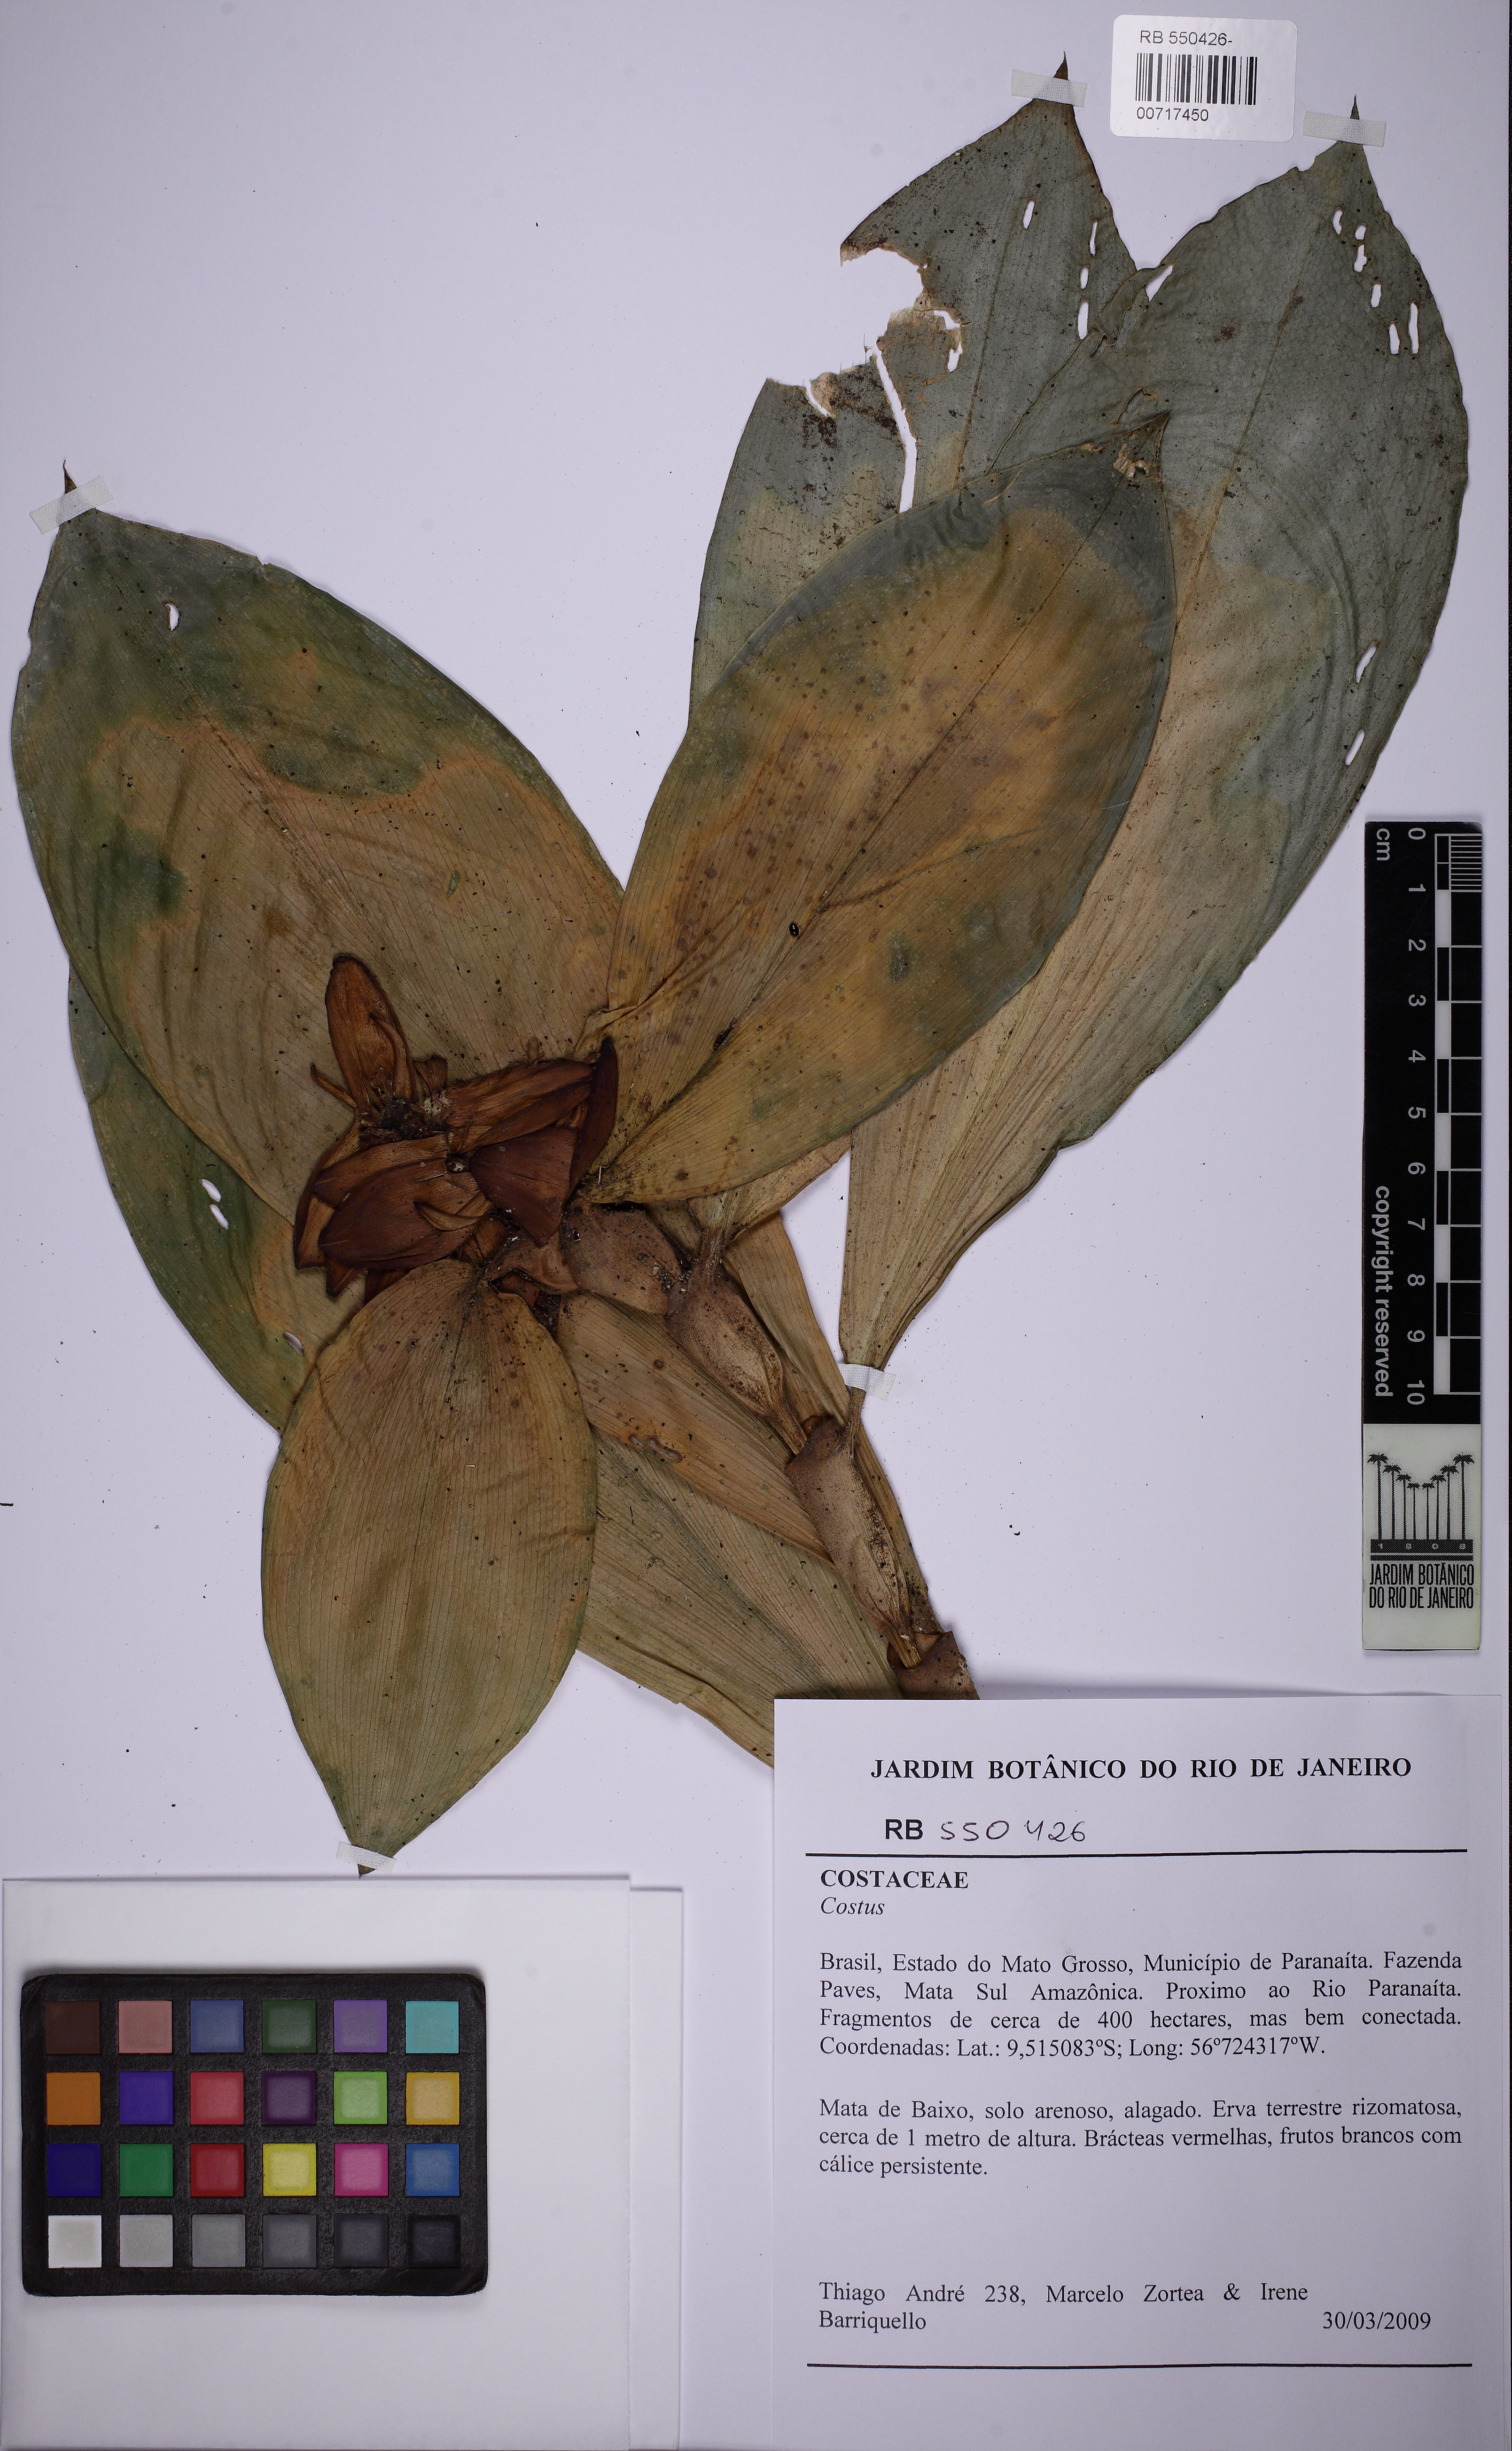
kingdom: Plantae
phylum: Tracheophyta
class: Liliopsida
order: Zingiberales
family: Costaceae
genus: Costus
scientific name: Costus scaber
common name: Spiral head ginger
